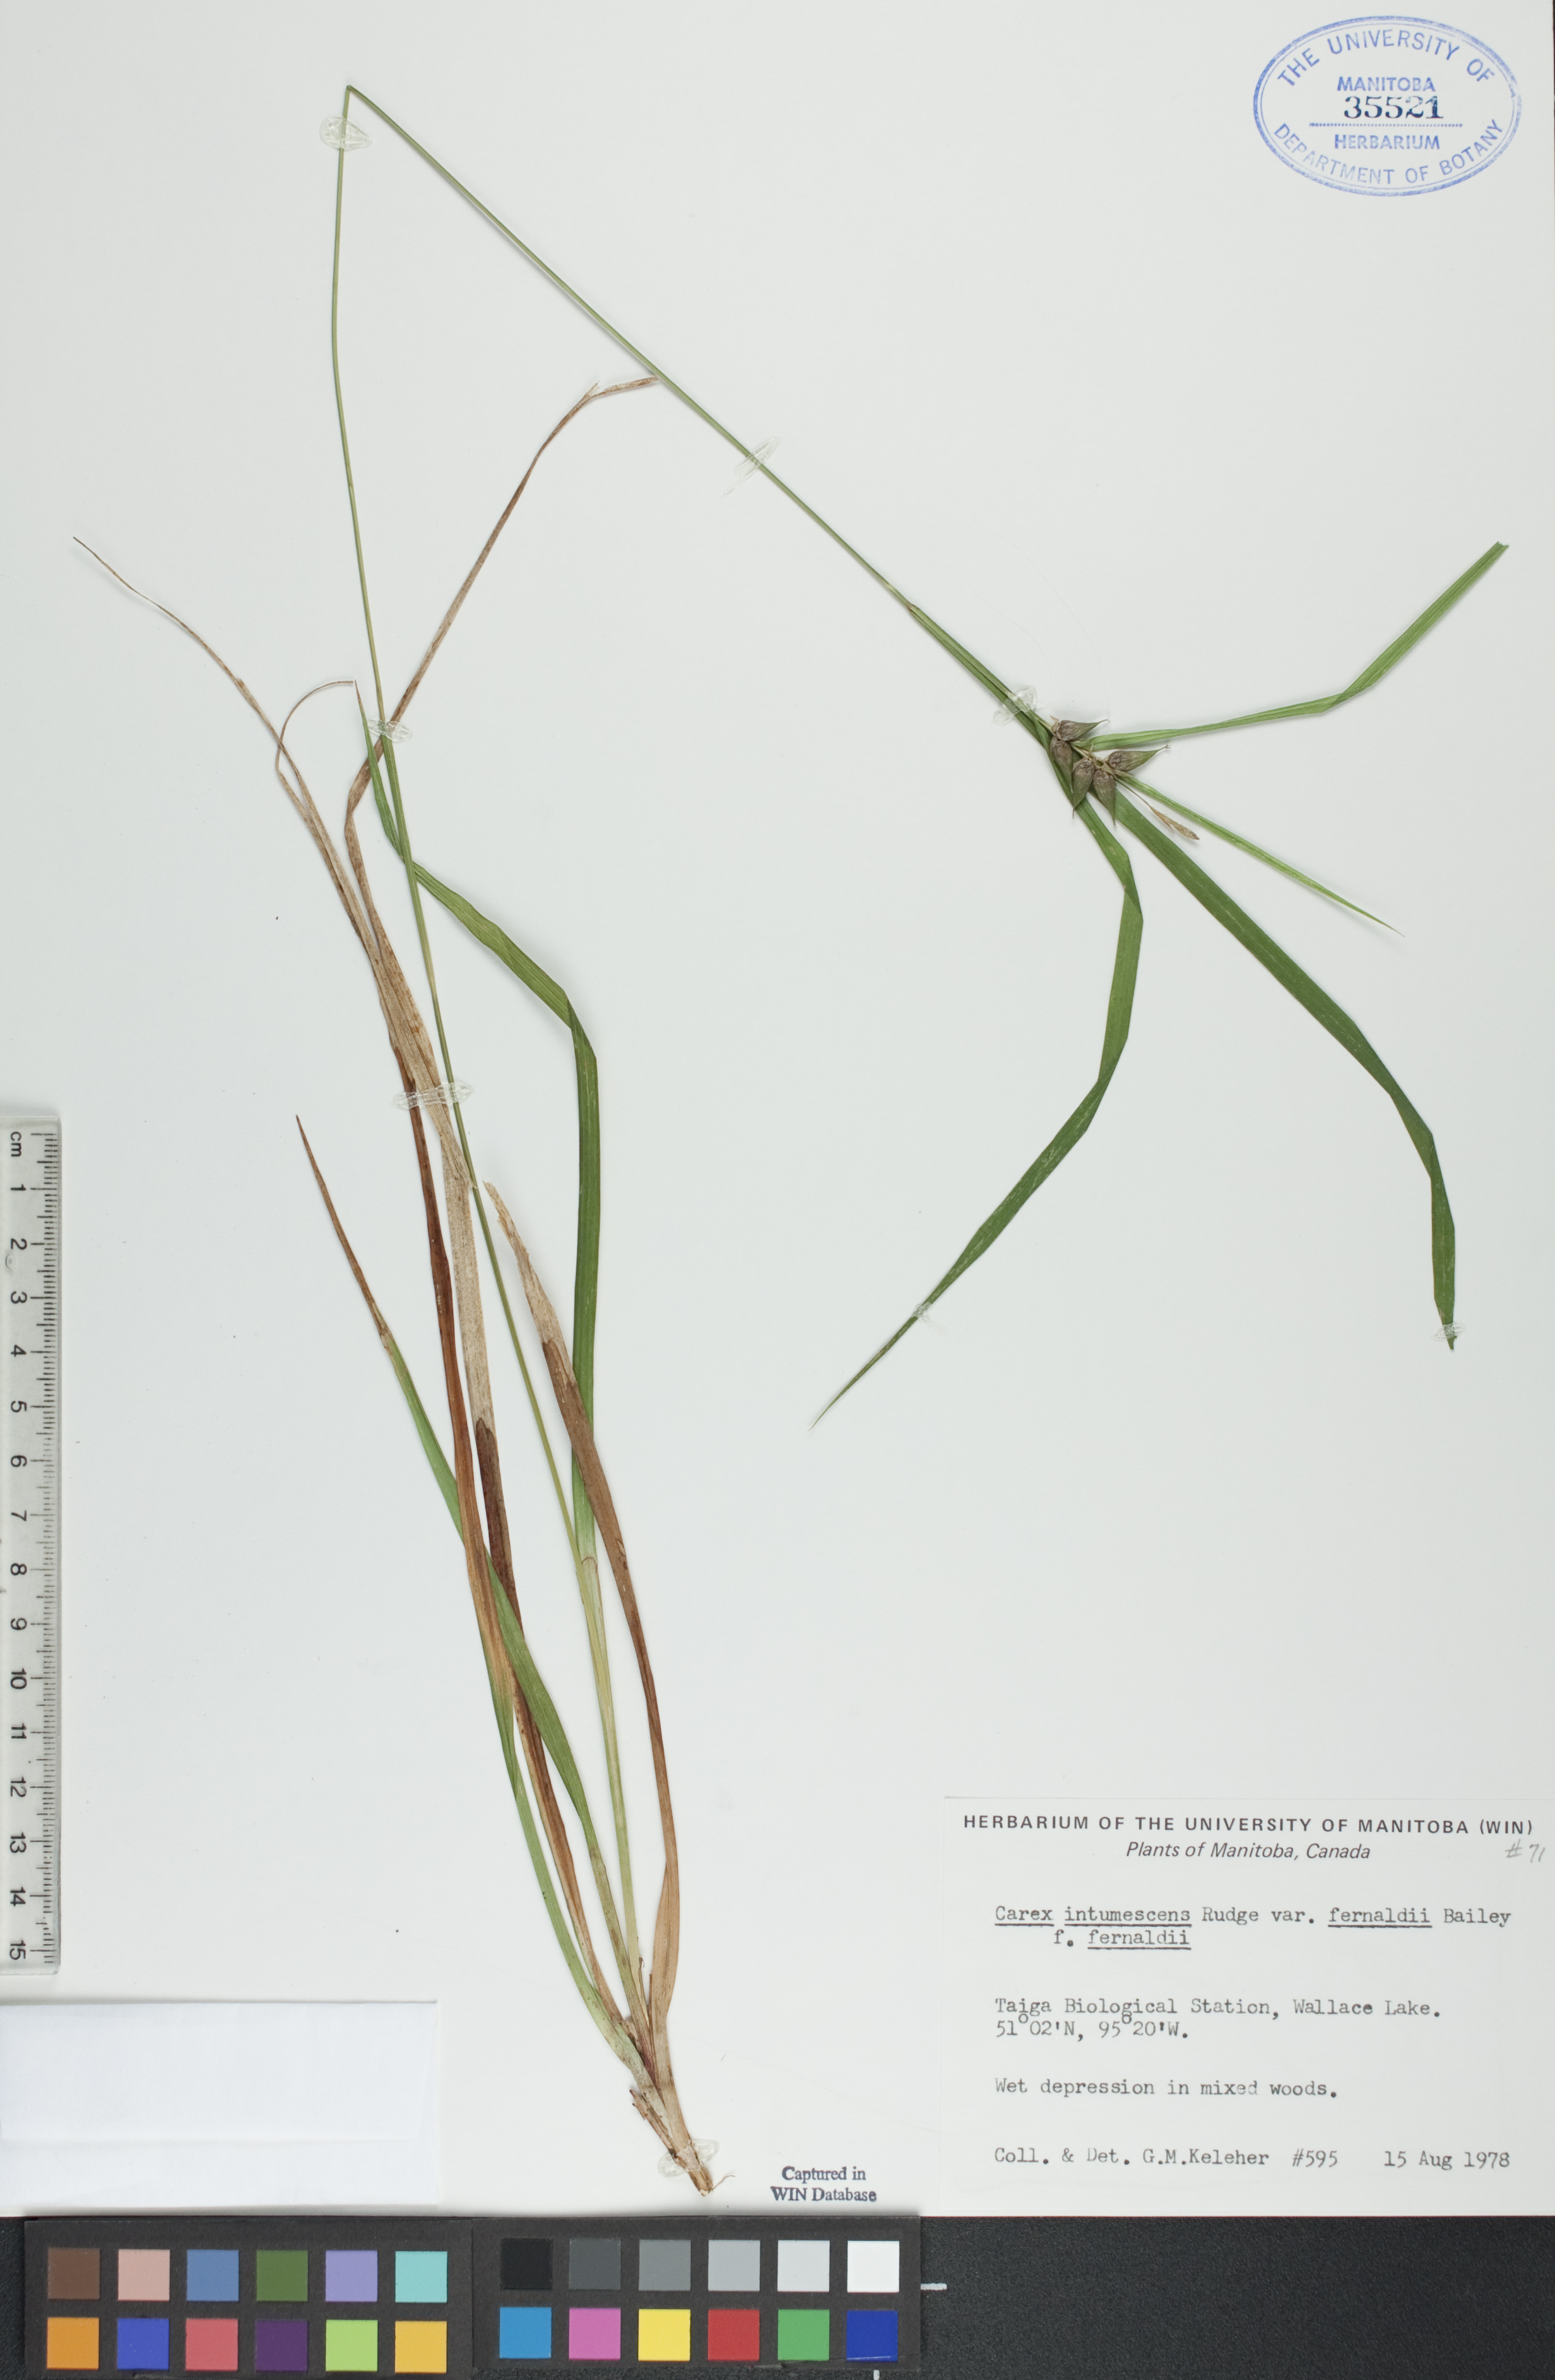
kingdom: Plantae
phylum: Tracheophyta
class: Liliopsida
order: Poales
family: Cyperaceae
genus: Carex
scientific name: Carex intumescens
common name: Greater bladder sedge
